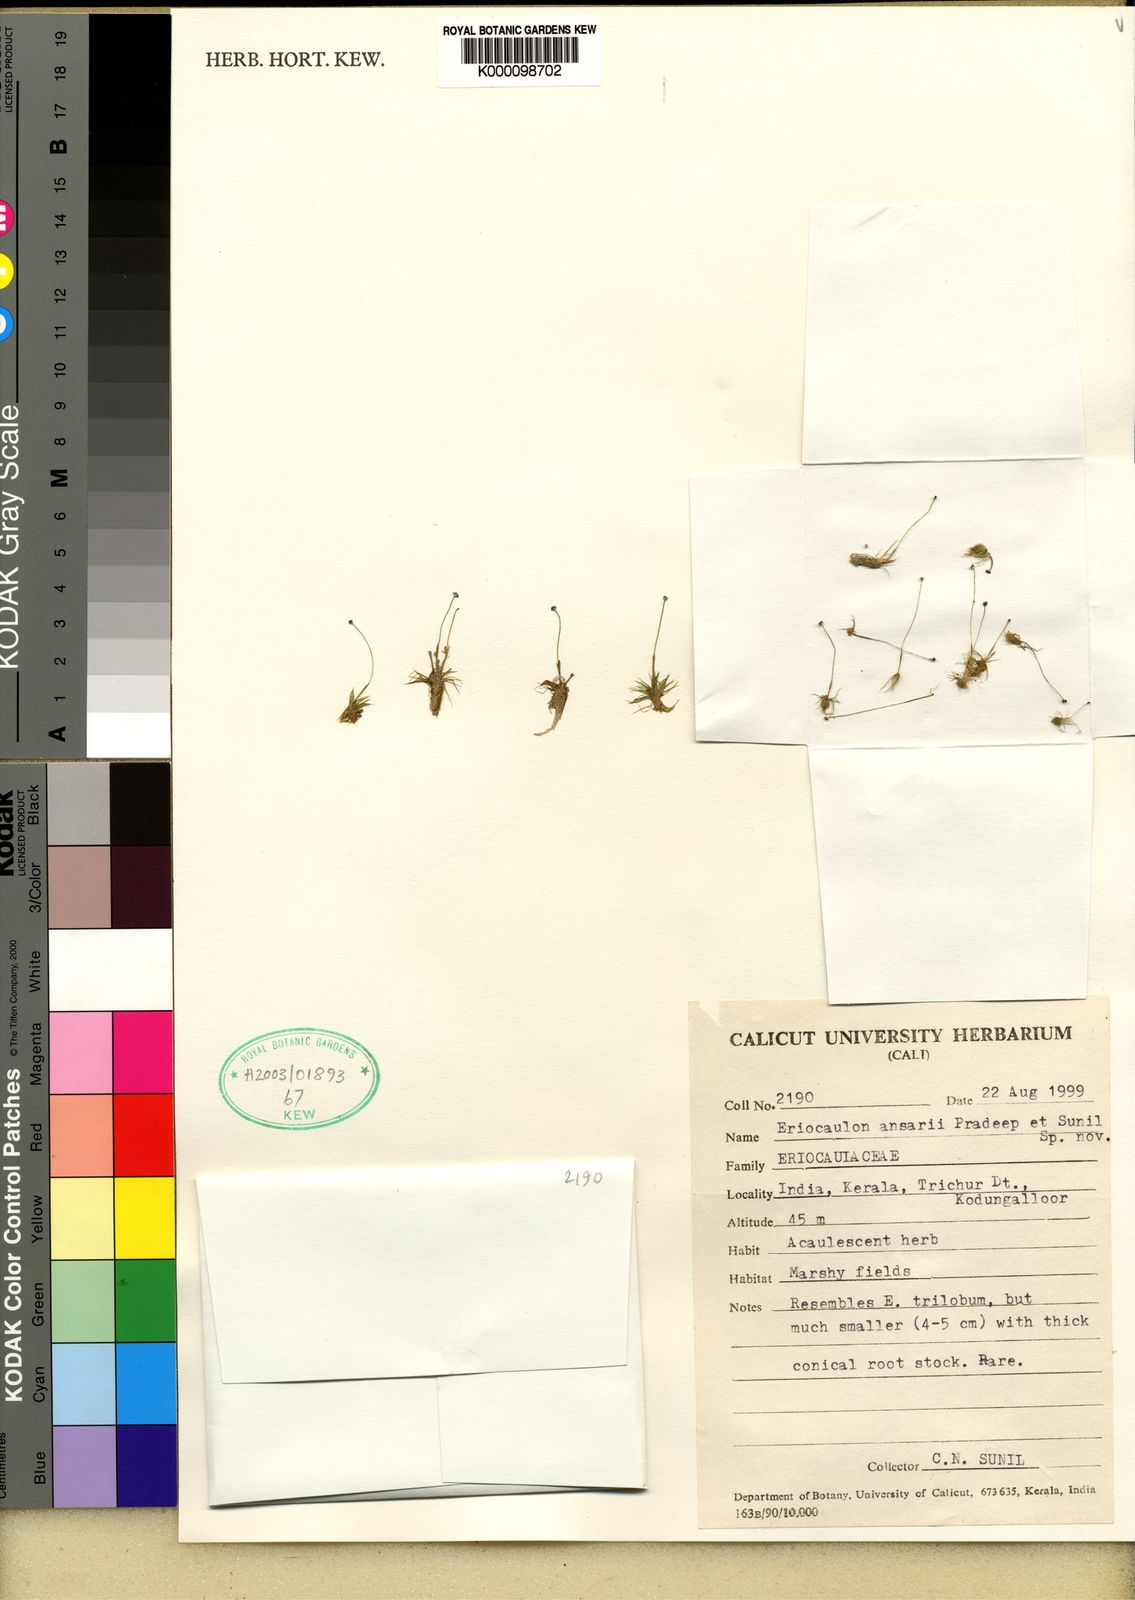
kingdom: Plantae
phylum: Tracheophyta
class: Liliopsida
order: Poales
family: Eriocaulaceae
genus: Eriocaulon
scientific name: Eriocaulon ansarii
